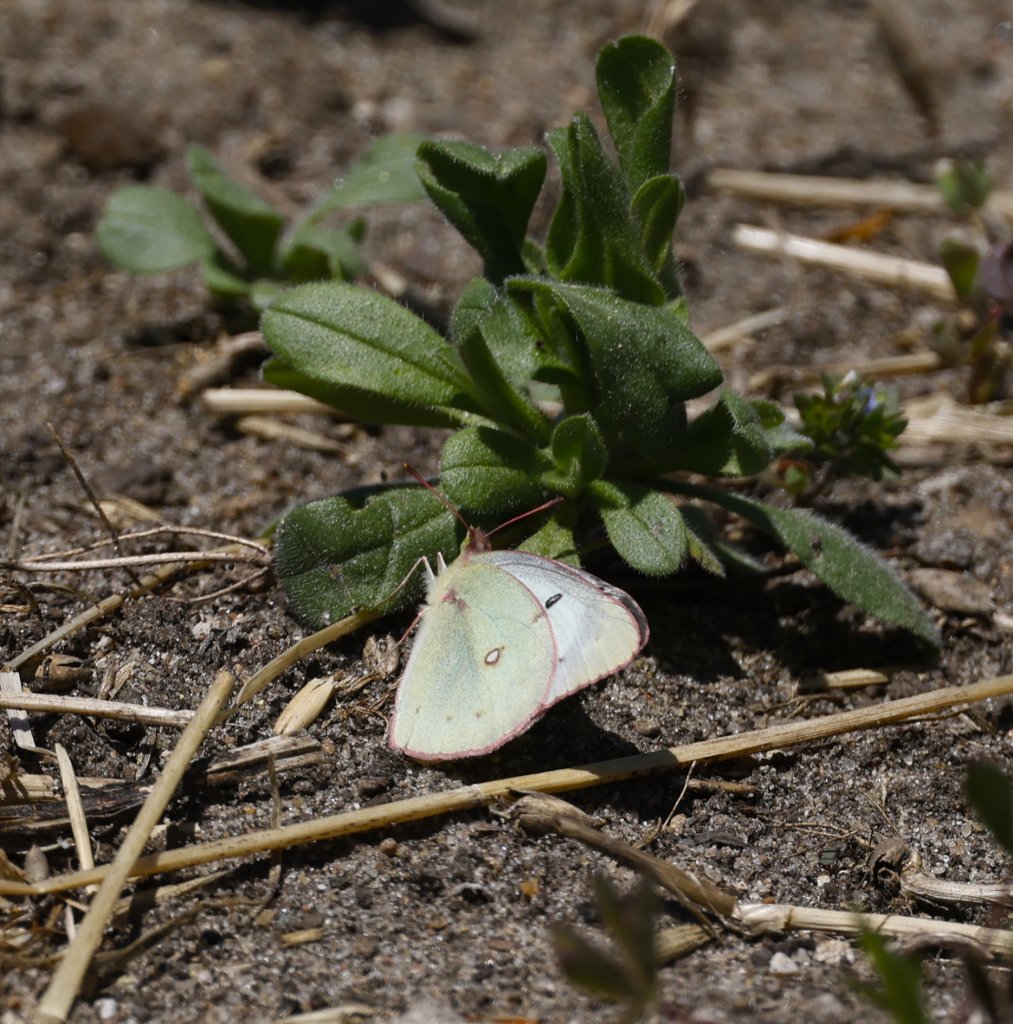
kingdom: Animalia
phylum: Arthropoda
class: Insecta
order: Lepidoptera
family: Pieridae
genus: Colias
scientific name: Colias philodice
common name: Clouded Sulphur
